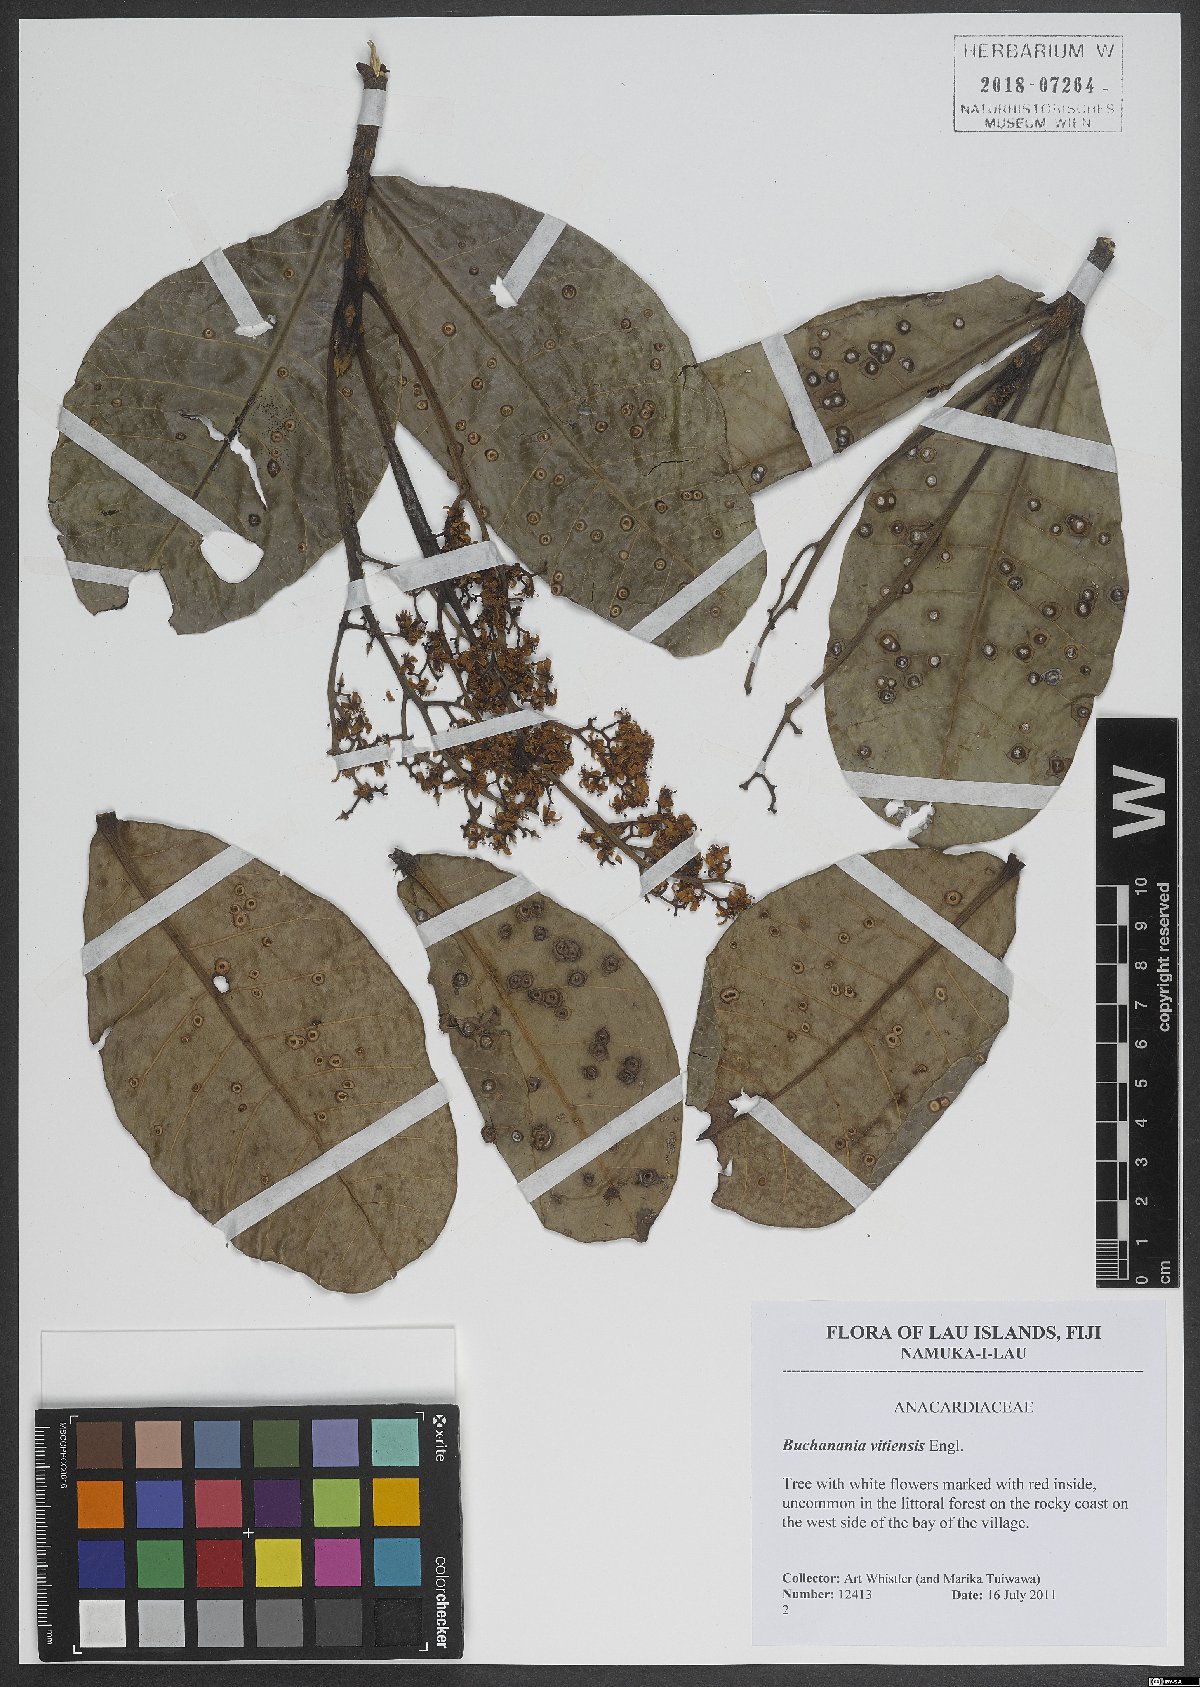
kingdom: Plantae
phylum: Tracheophyta
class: Magnoliopsida
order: Sapindales
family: Anacardiaceae
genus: Buchanania
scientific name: Buchanania vitiensis
